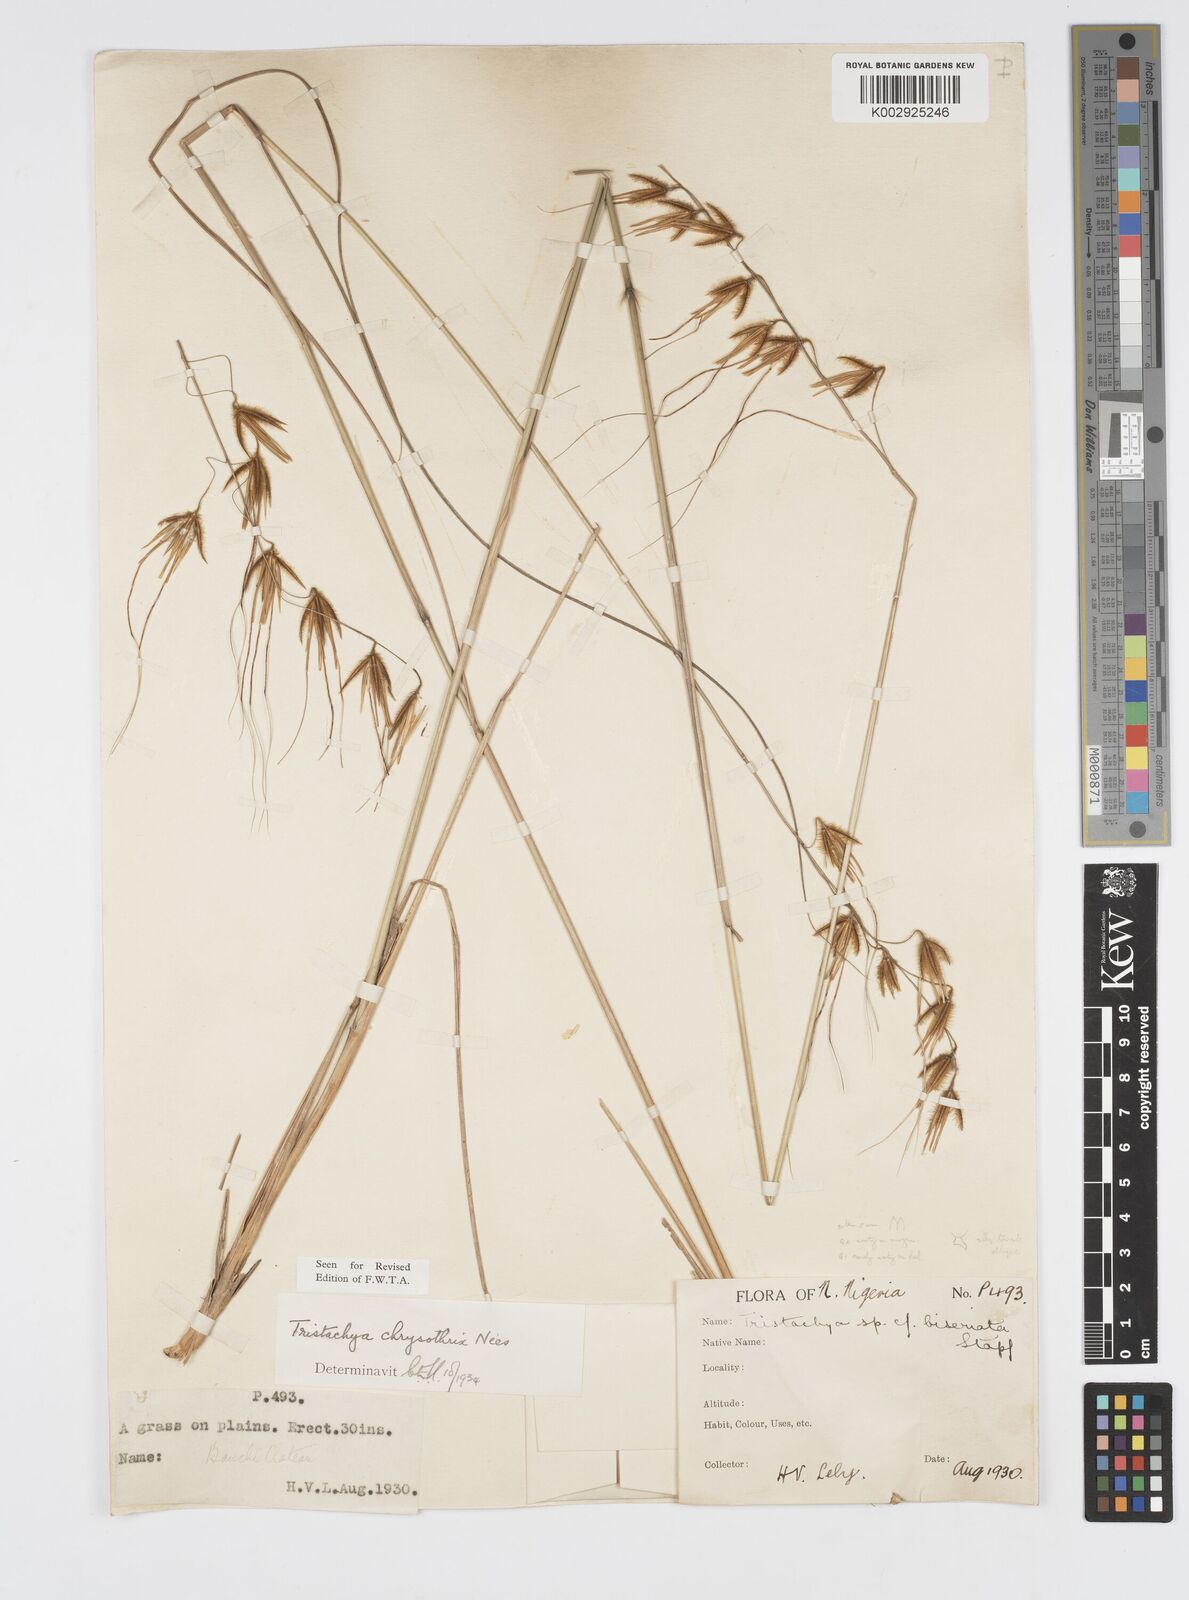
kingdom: Plantae
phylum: Tracheophyta
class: Liliopsida
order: Poales
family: Poaceae
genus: Loudetiopsis
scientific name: Loudetiopsis chrysothrix
